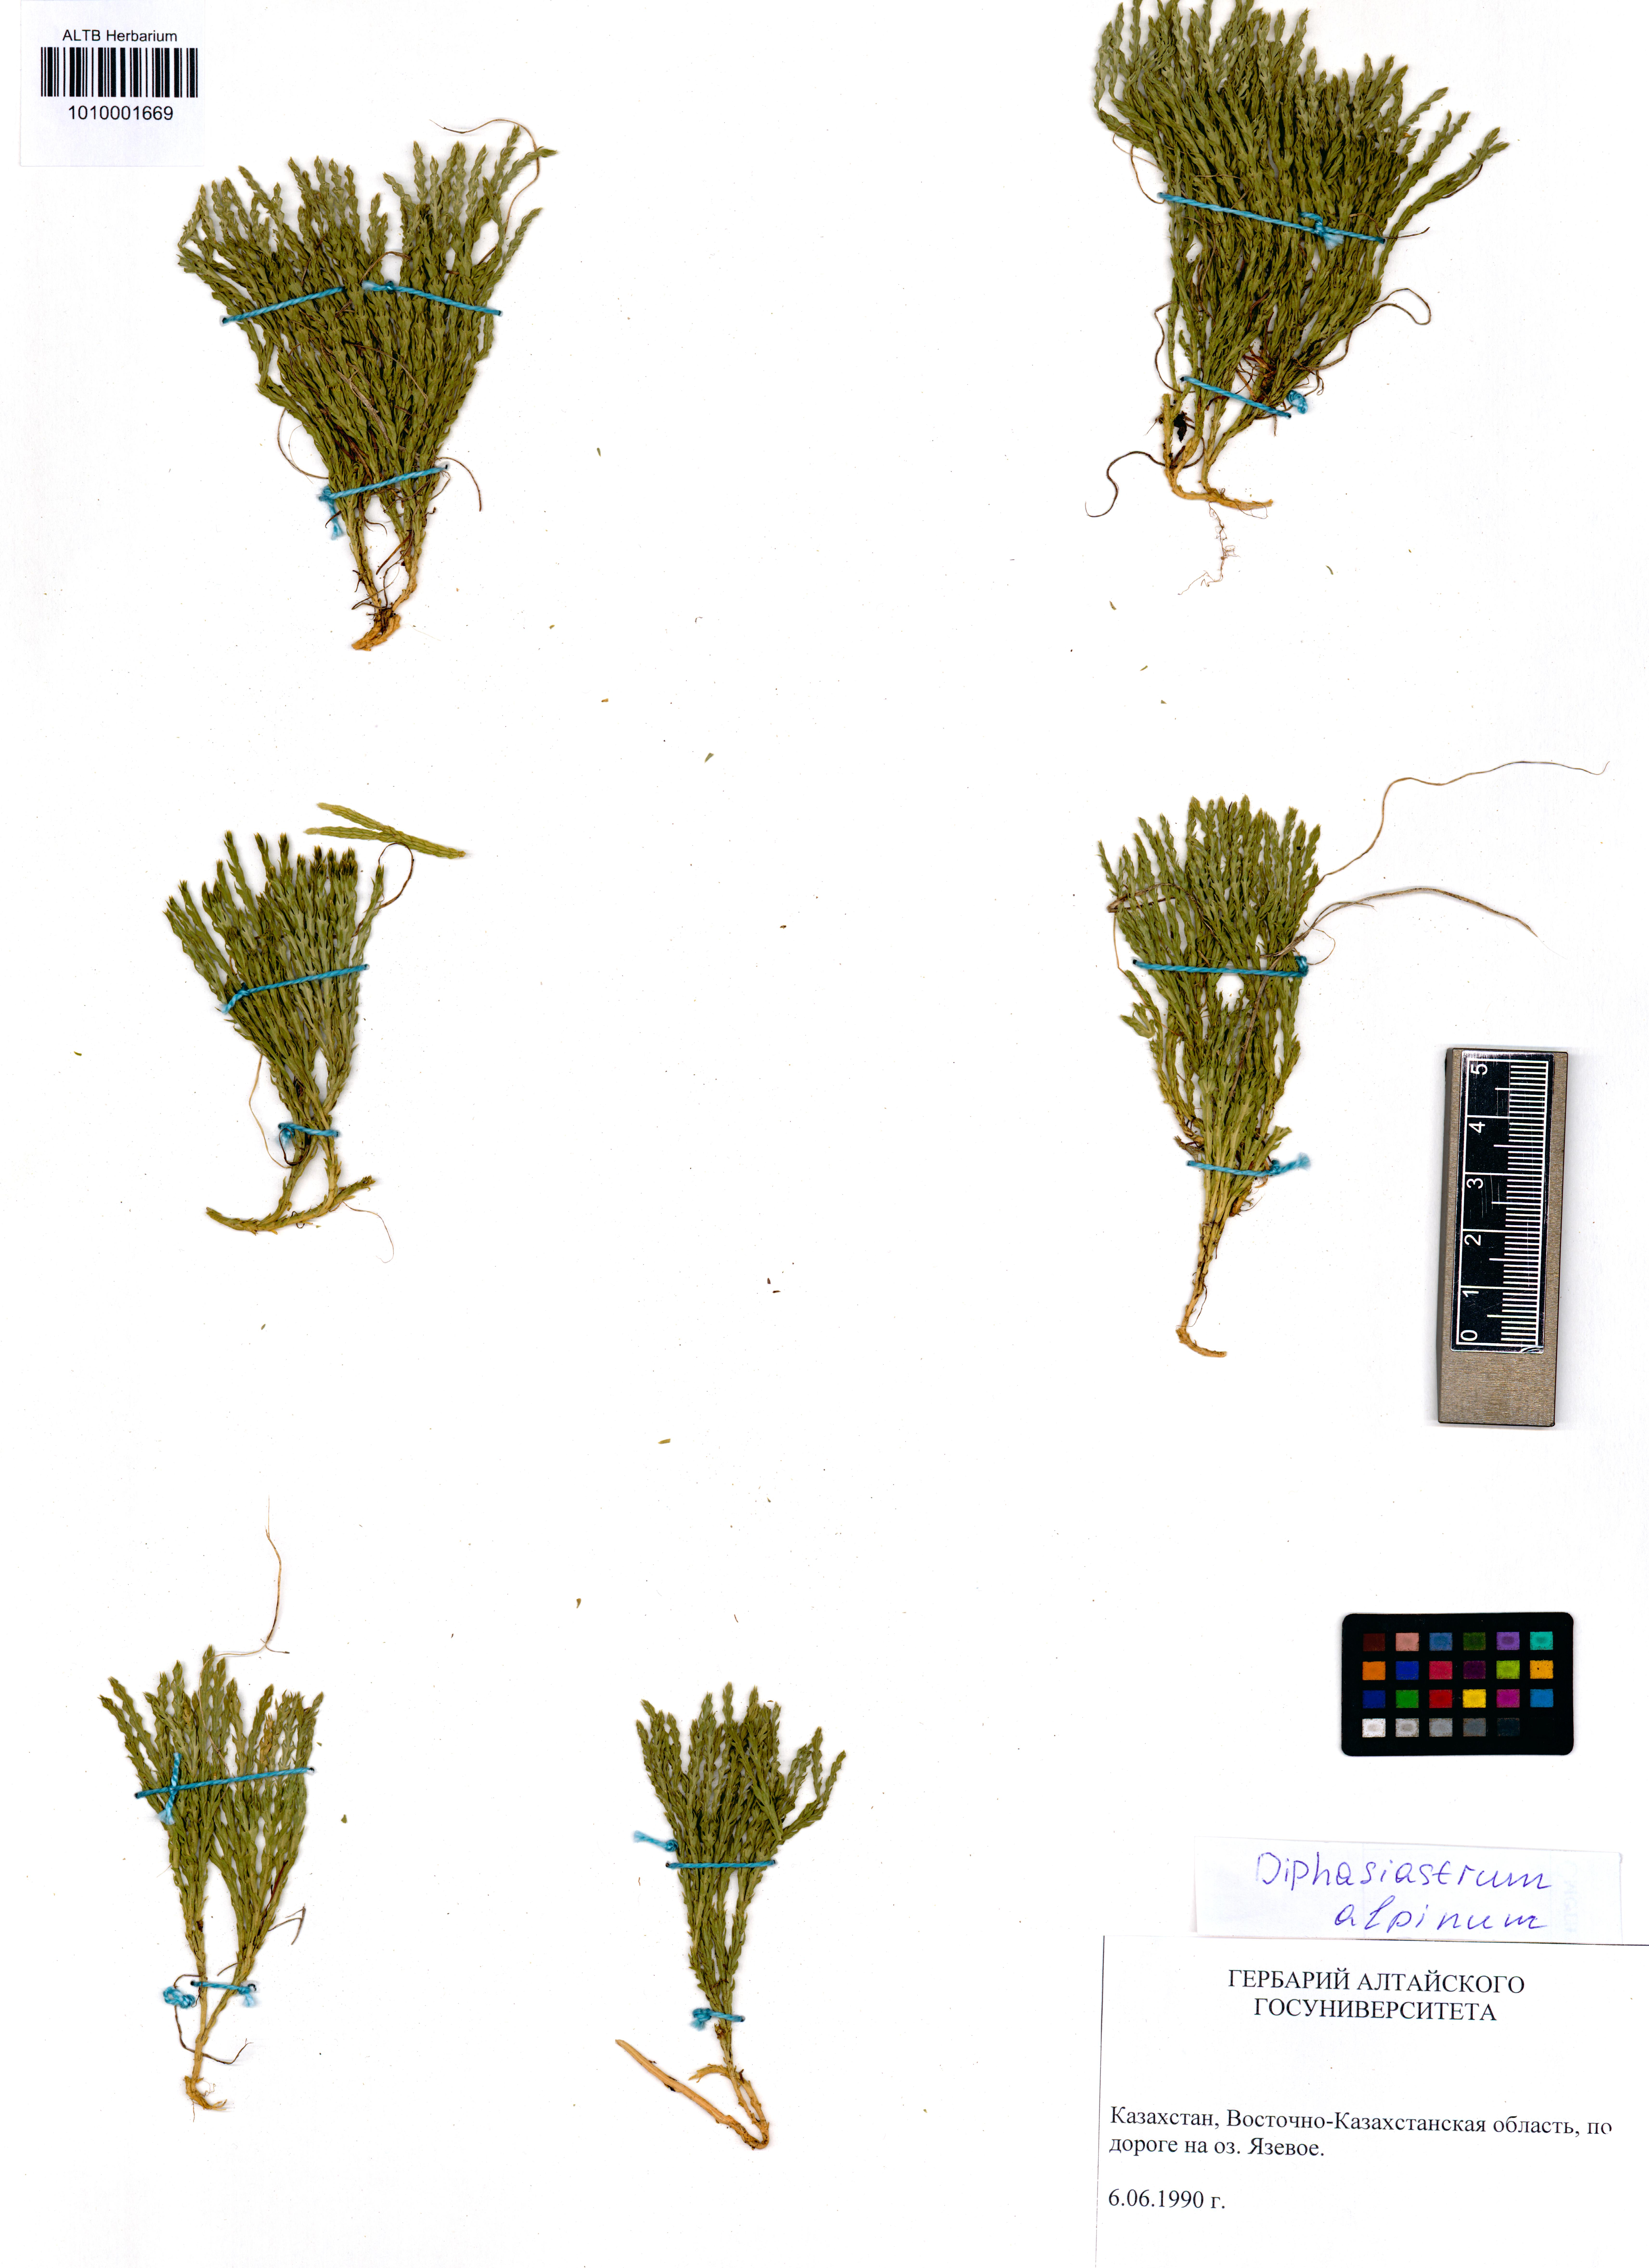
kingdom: Plantae
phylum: Tracheophyta
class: Lycopodiopsida
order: Lycopodiales
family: Lycopodiaceae
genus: Diphasiastrum
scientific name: Diphasiastrum alpinum
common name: Alpine clubmoss
